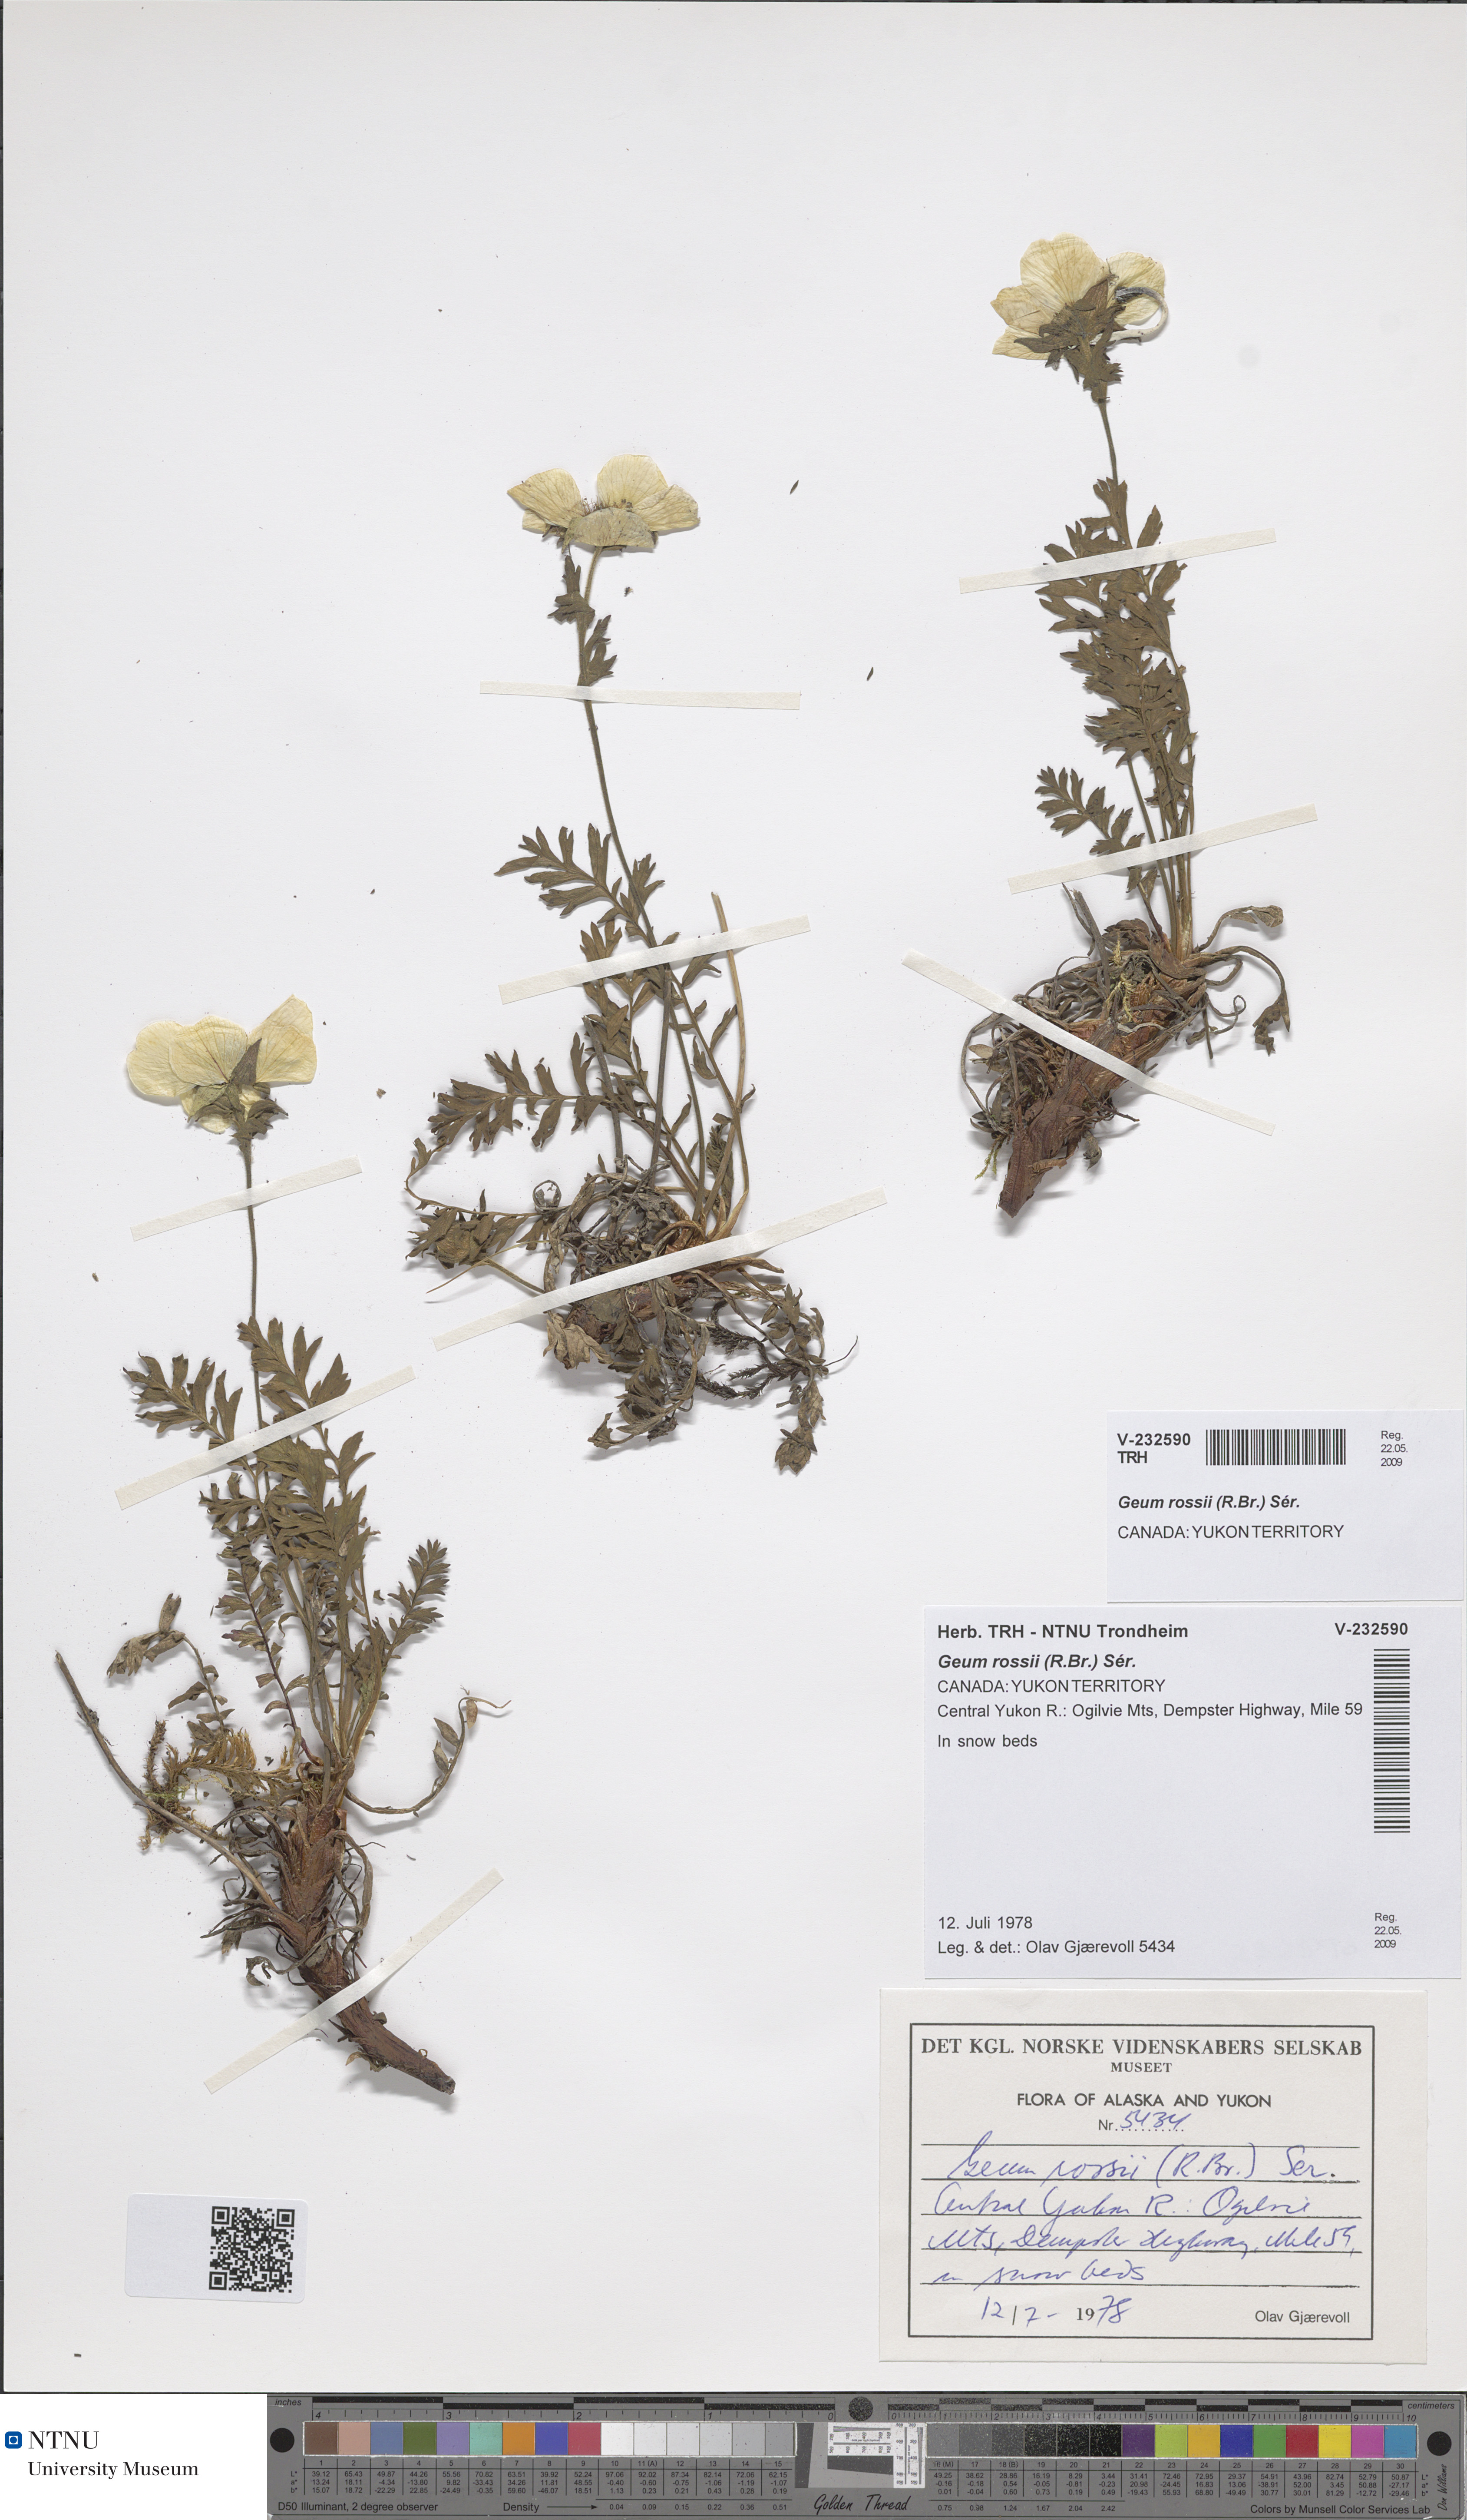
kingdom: Plantae
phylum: Tracheophyta
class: Magnoliopsida
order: Rosales
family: Rosaceae
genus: Geum
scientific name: Geum rossii
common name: Alpine avens
